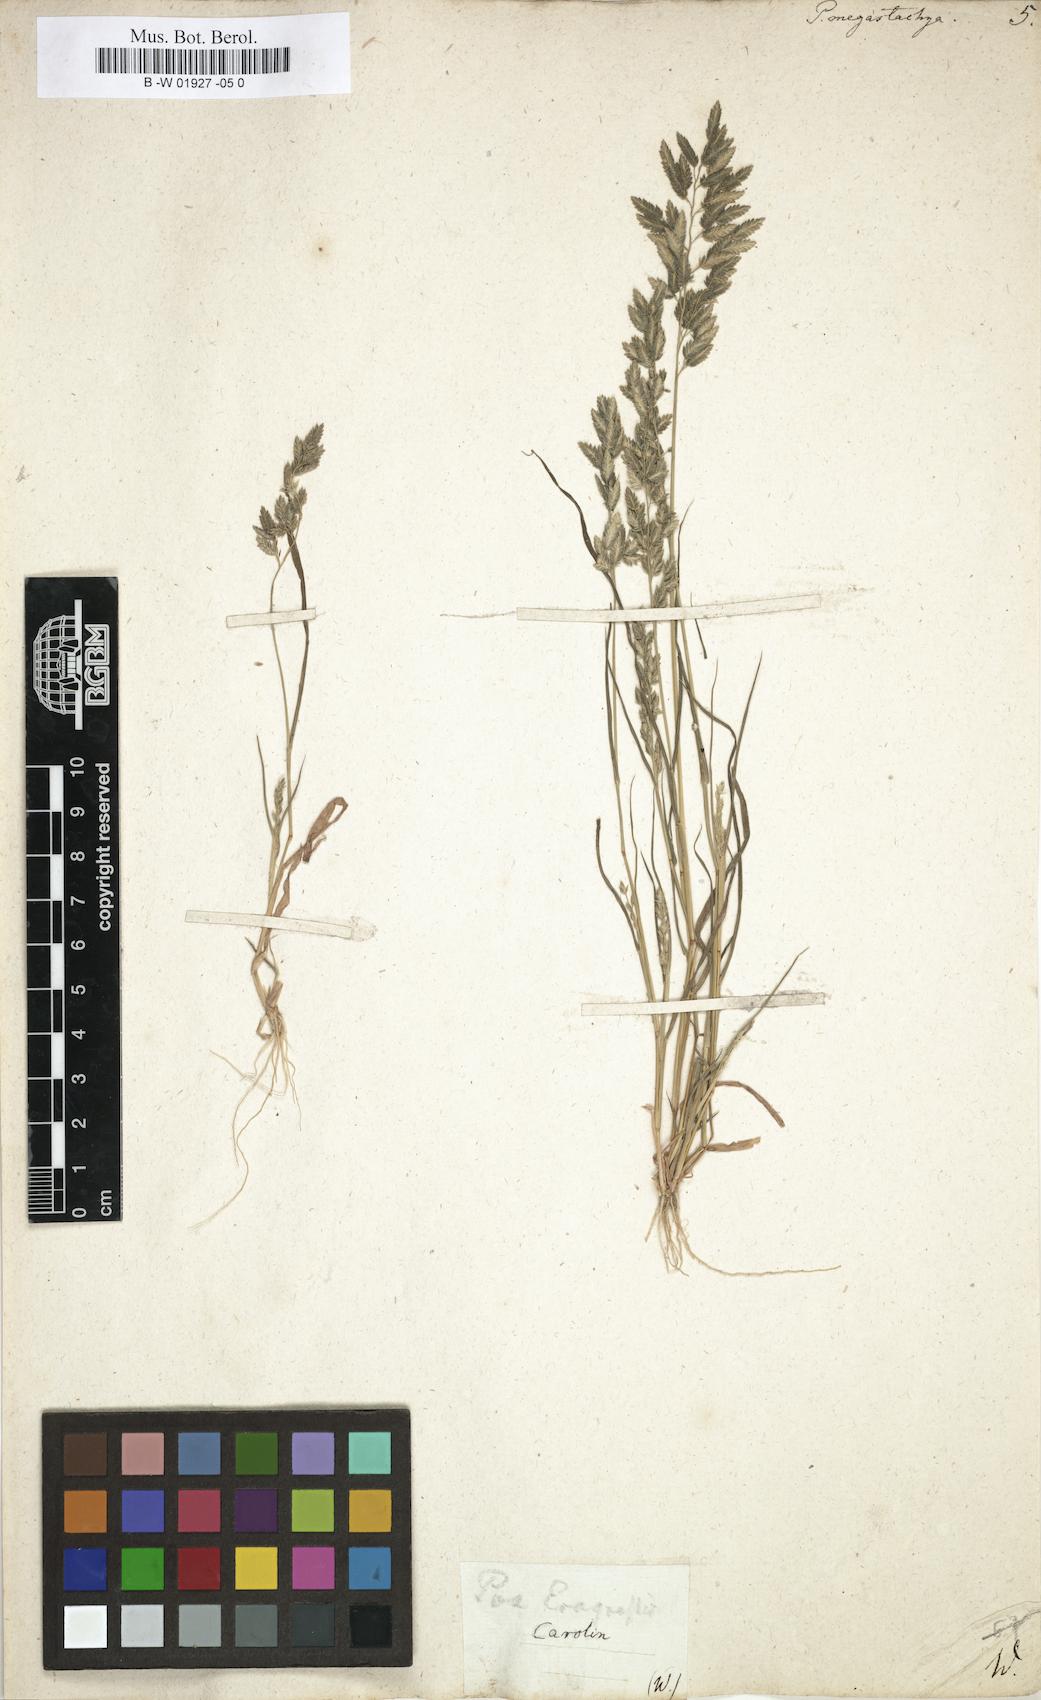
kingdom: Plantae
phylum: Tracheophyta
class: Liliopsida
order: Poales
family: Poaceae
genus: Eragrostis
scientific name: Eragrostis cilianensis
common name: Stinkgrass
